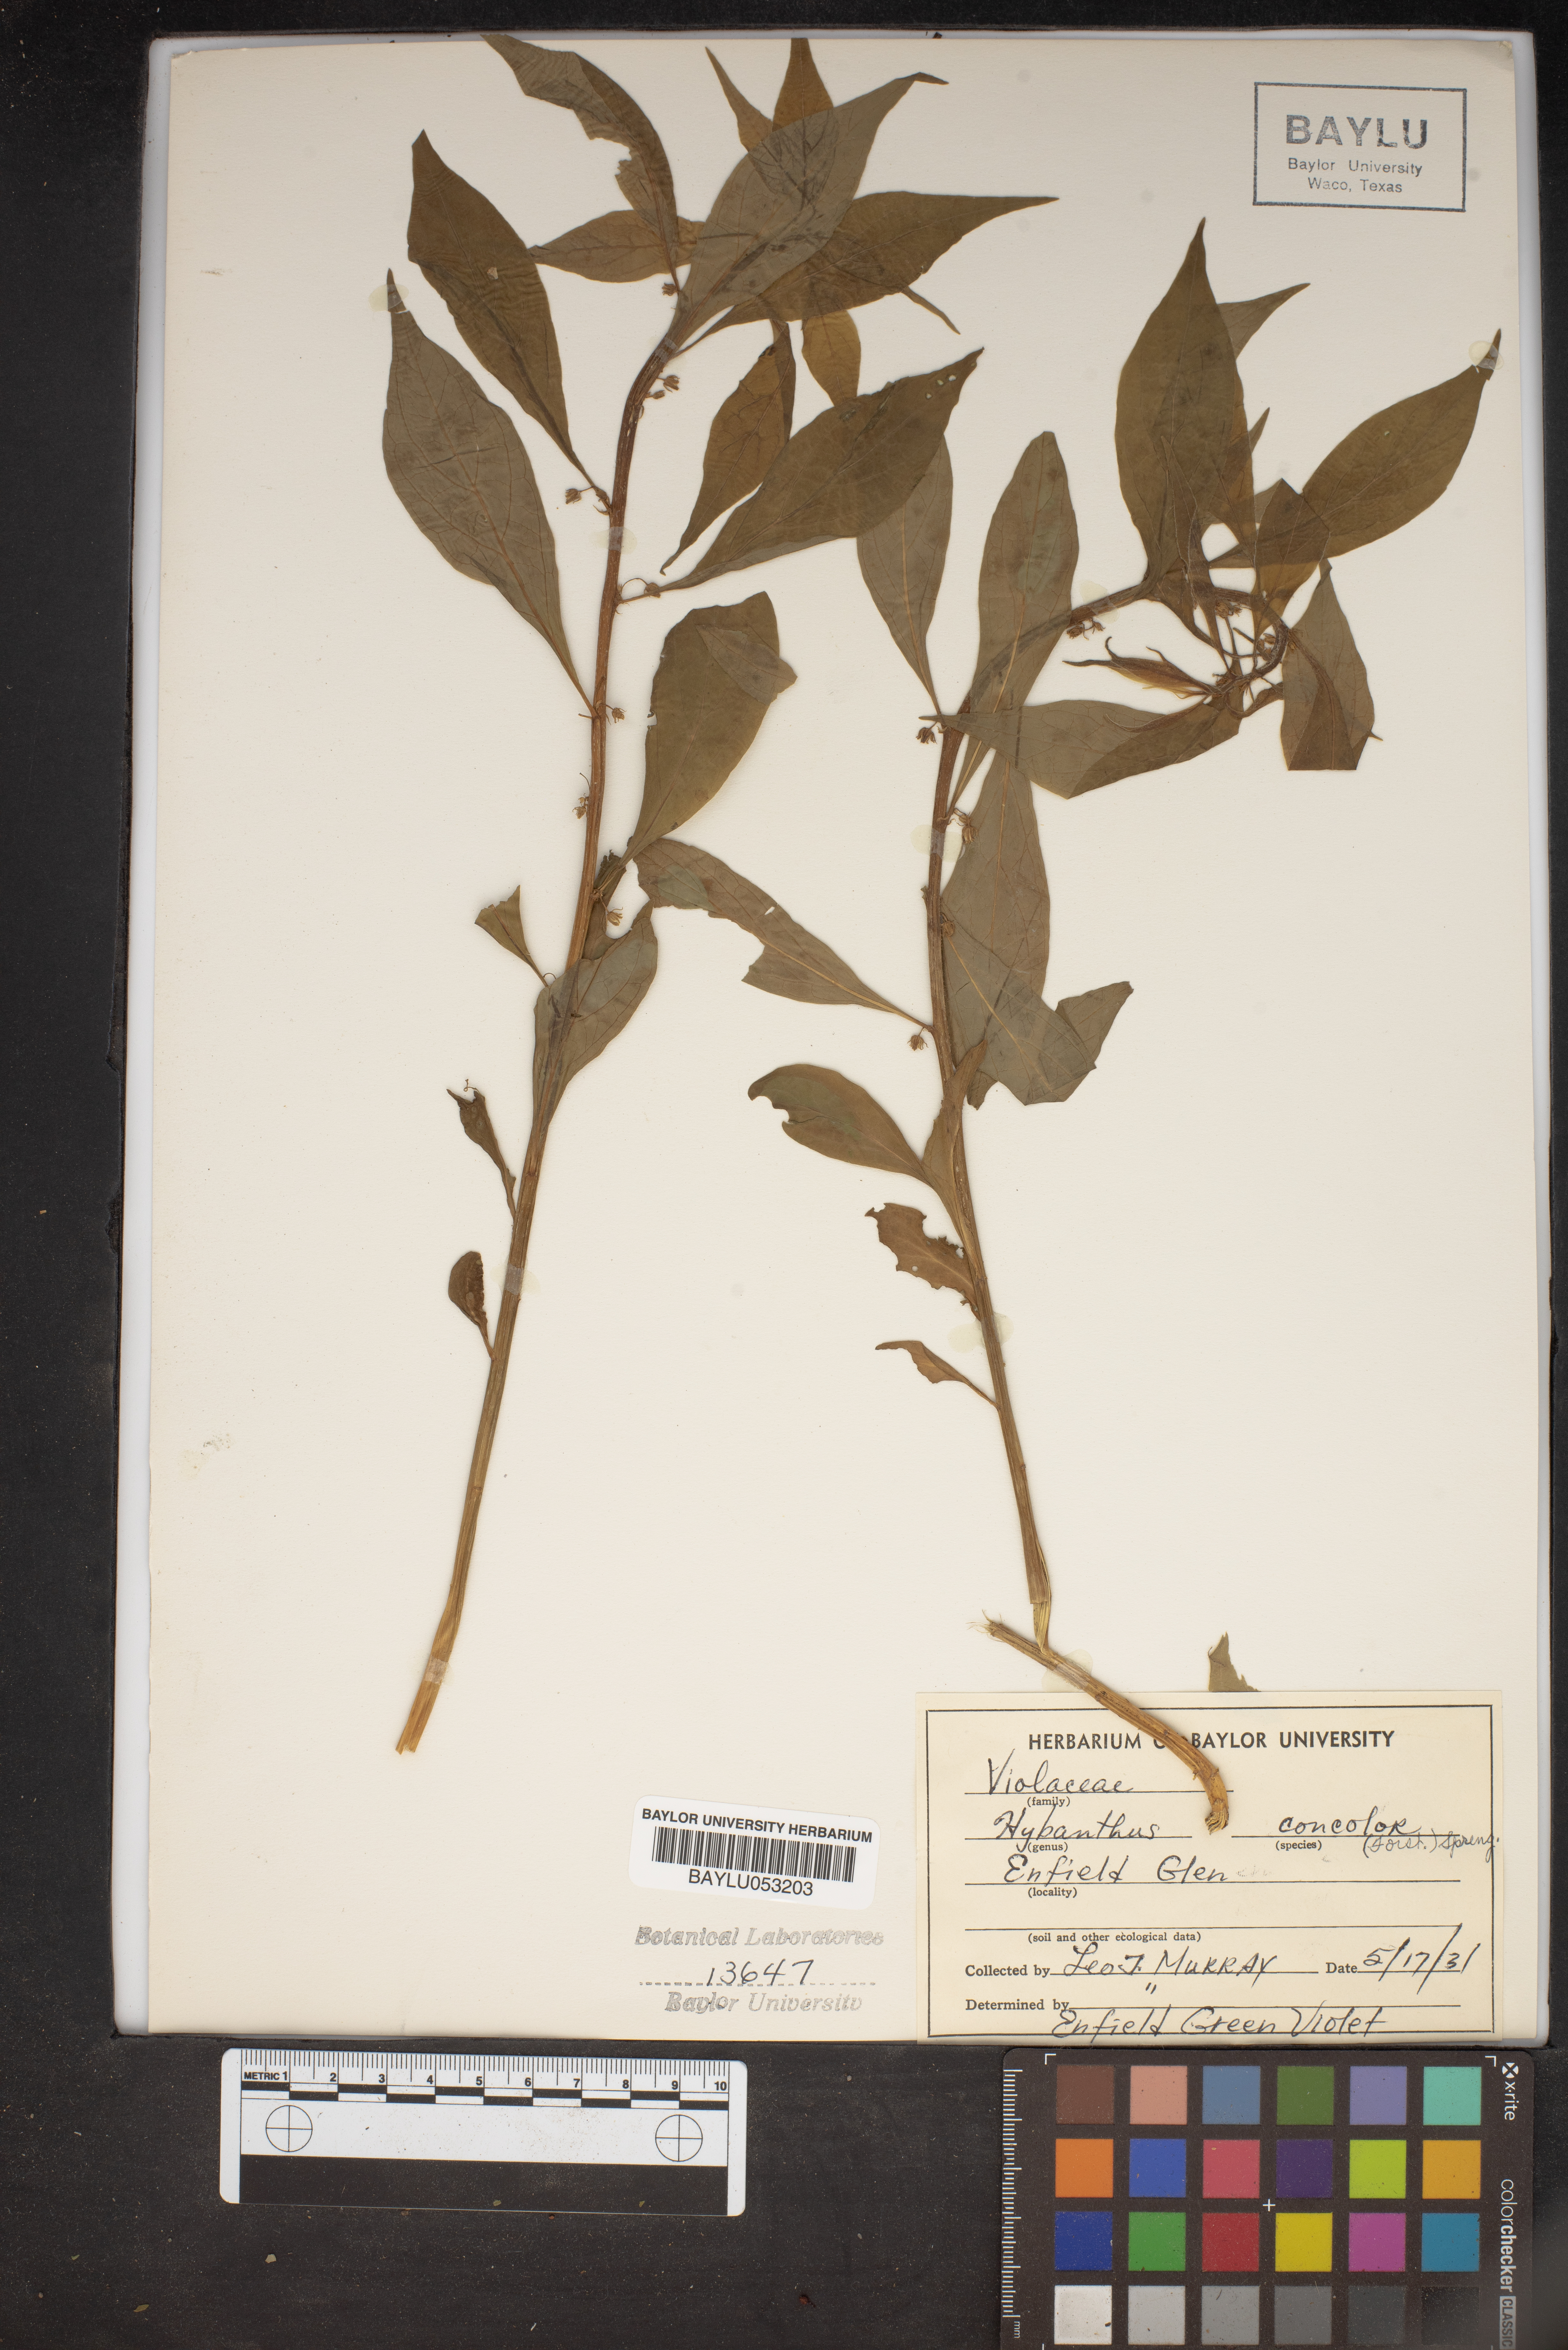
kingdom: Plantae
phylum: Tracheophyta
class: Magnoliopsida
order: Malpighiales
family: Violaceae
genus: Cubelium
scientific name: Cubelium concolor
